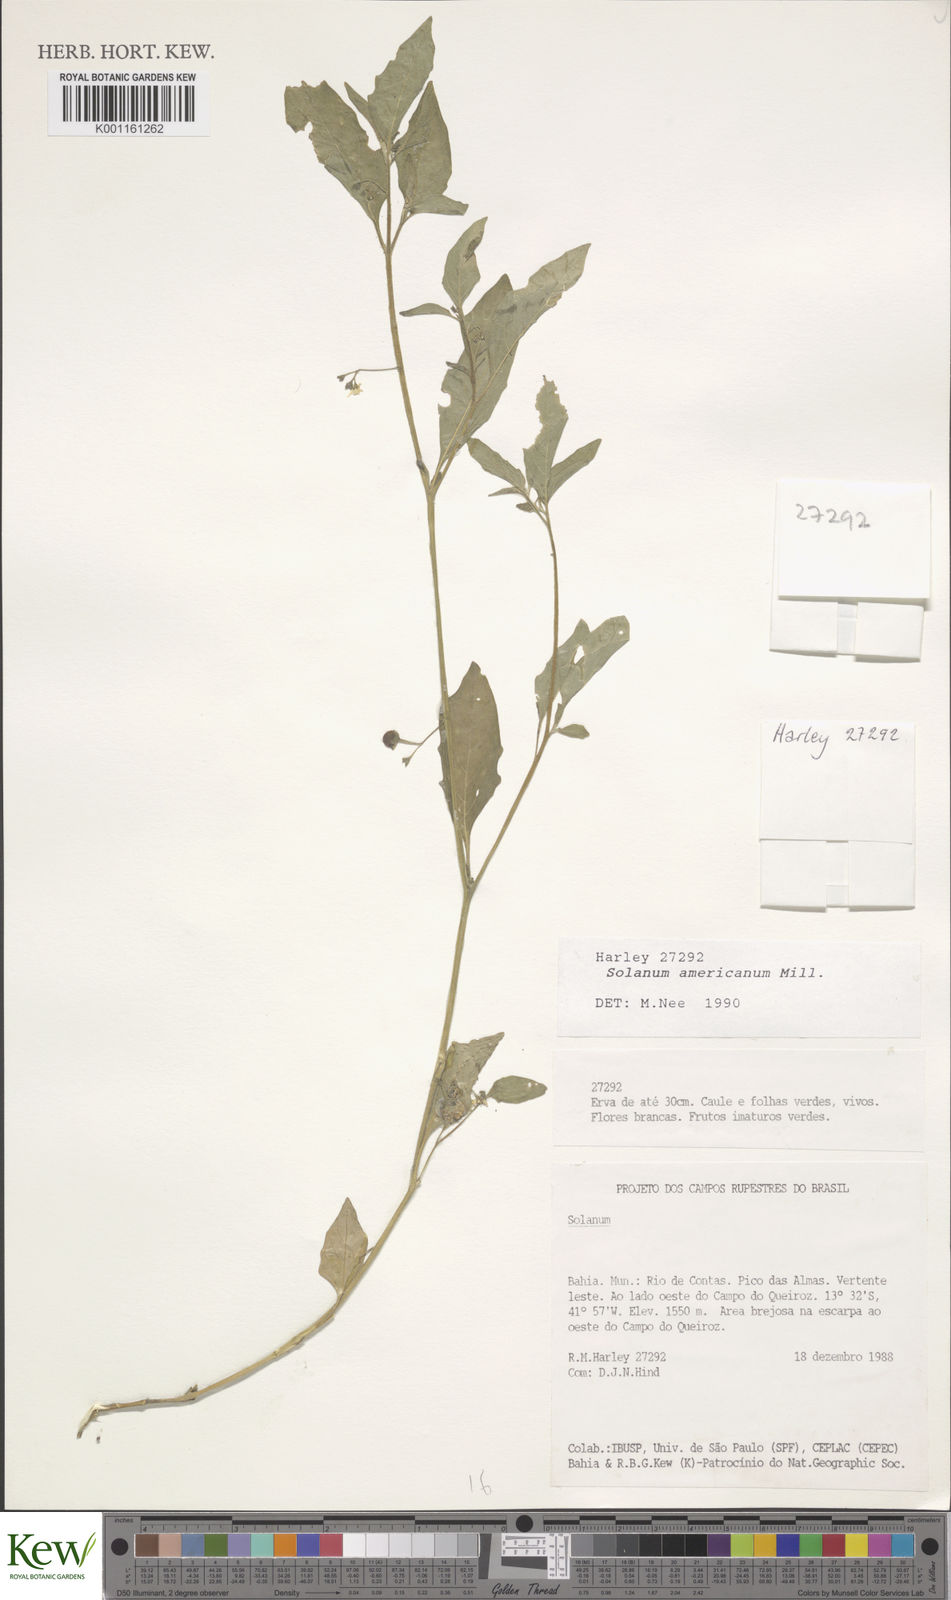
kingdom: Plantae
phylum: Tracheophyta
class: Magnoliopsida
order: Solanales
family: Solanaceae
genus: Solanum
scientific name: Solanum americanum
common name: American black nightshade
